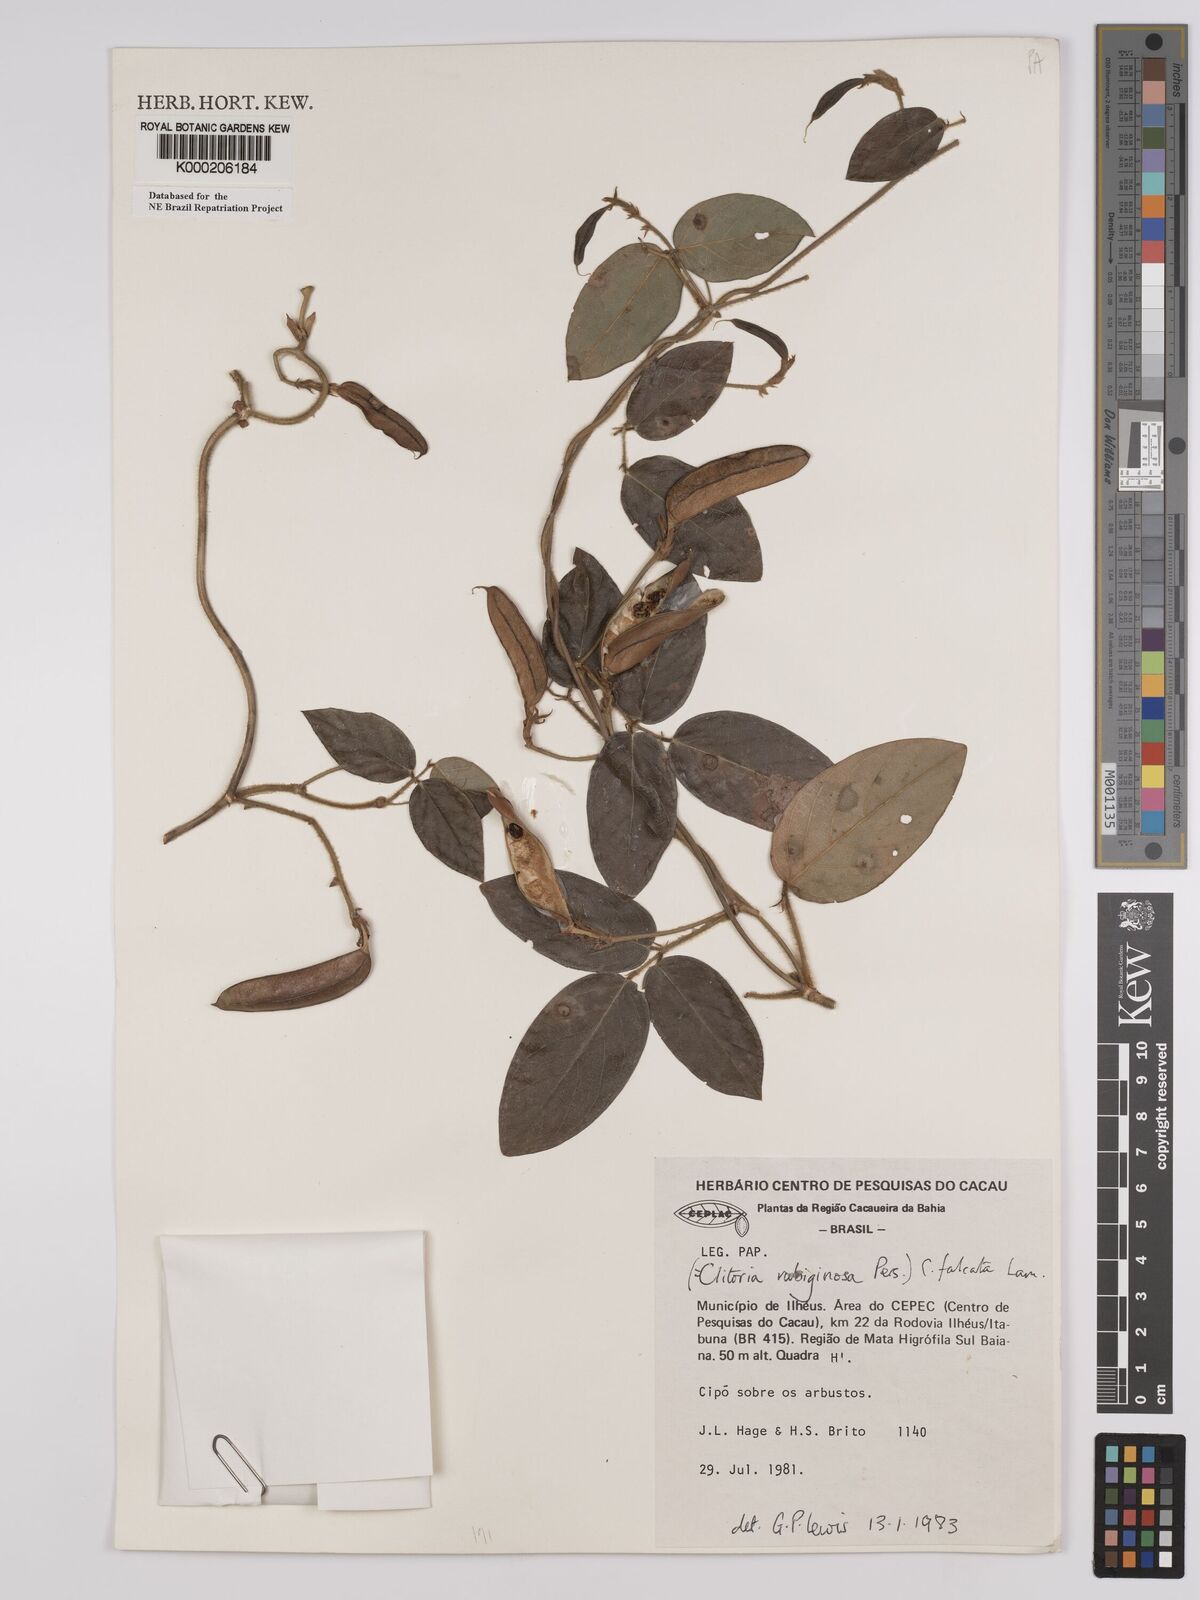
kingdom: Plantae
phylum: Tracheophyta
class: Magnoliopsida
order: Fabales
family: Fabaceae
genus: Clitoria
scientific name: Clitoria falcata
